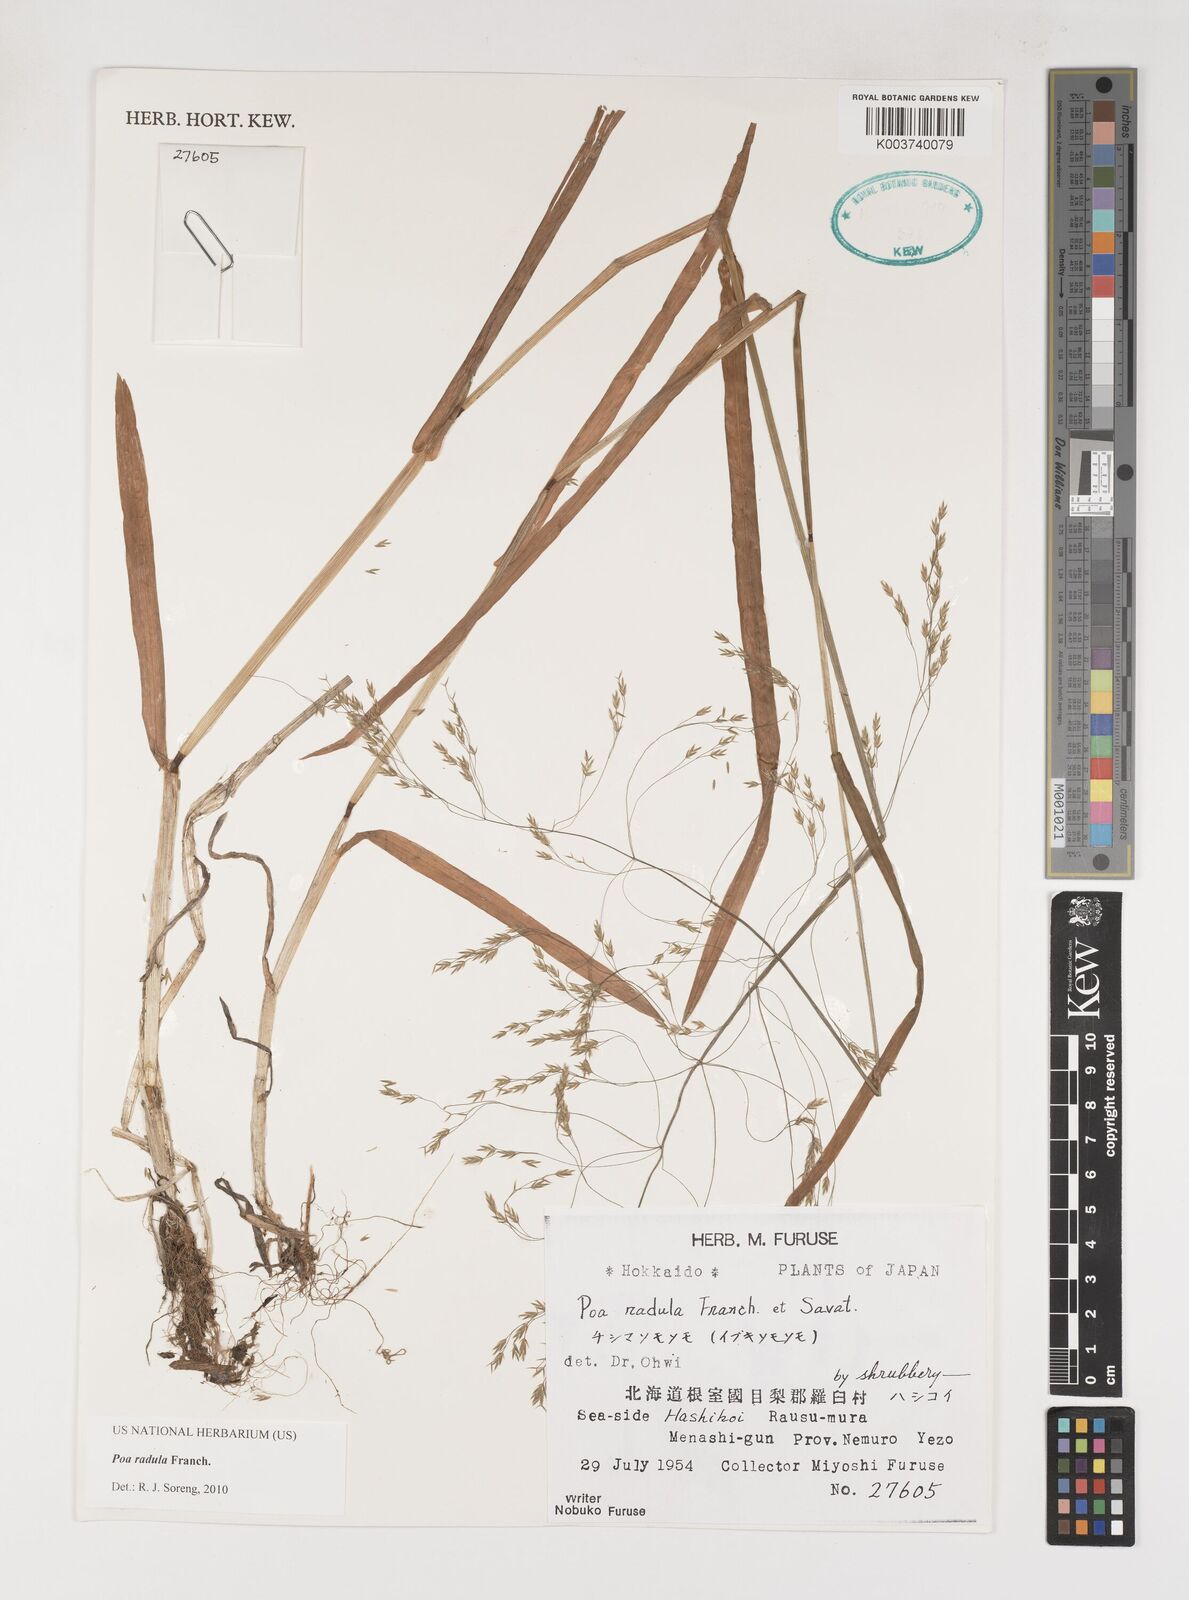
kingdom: Plantae
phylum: Tracheophyta
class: Liliopsida
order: Poales
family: Poaceae
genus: Poa
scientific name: Poa radula
